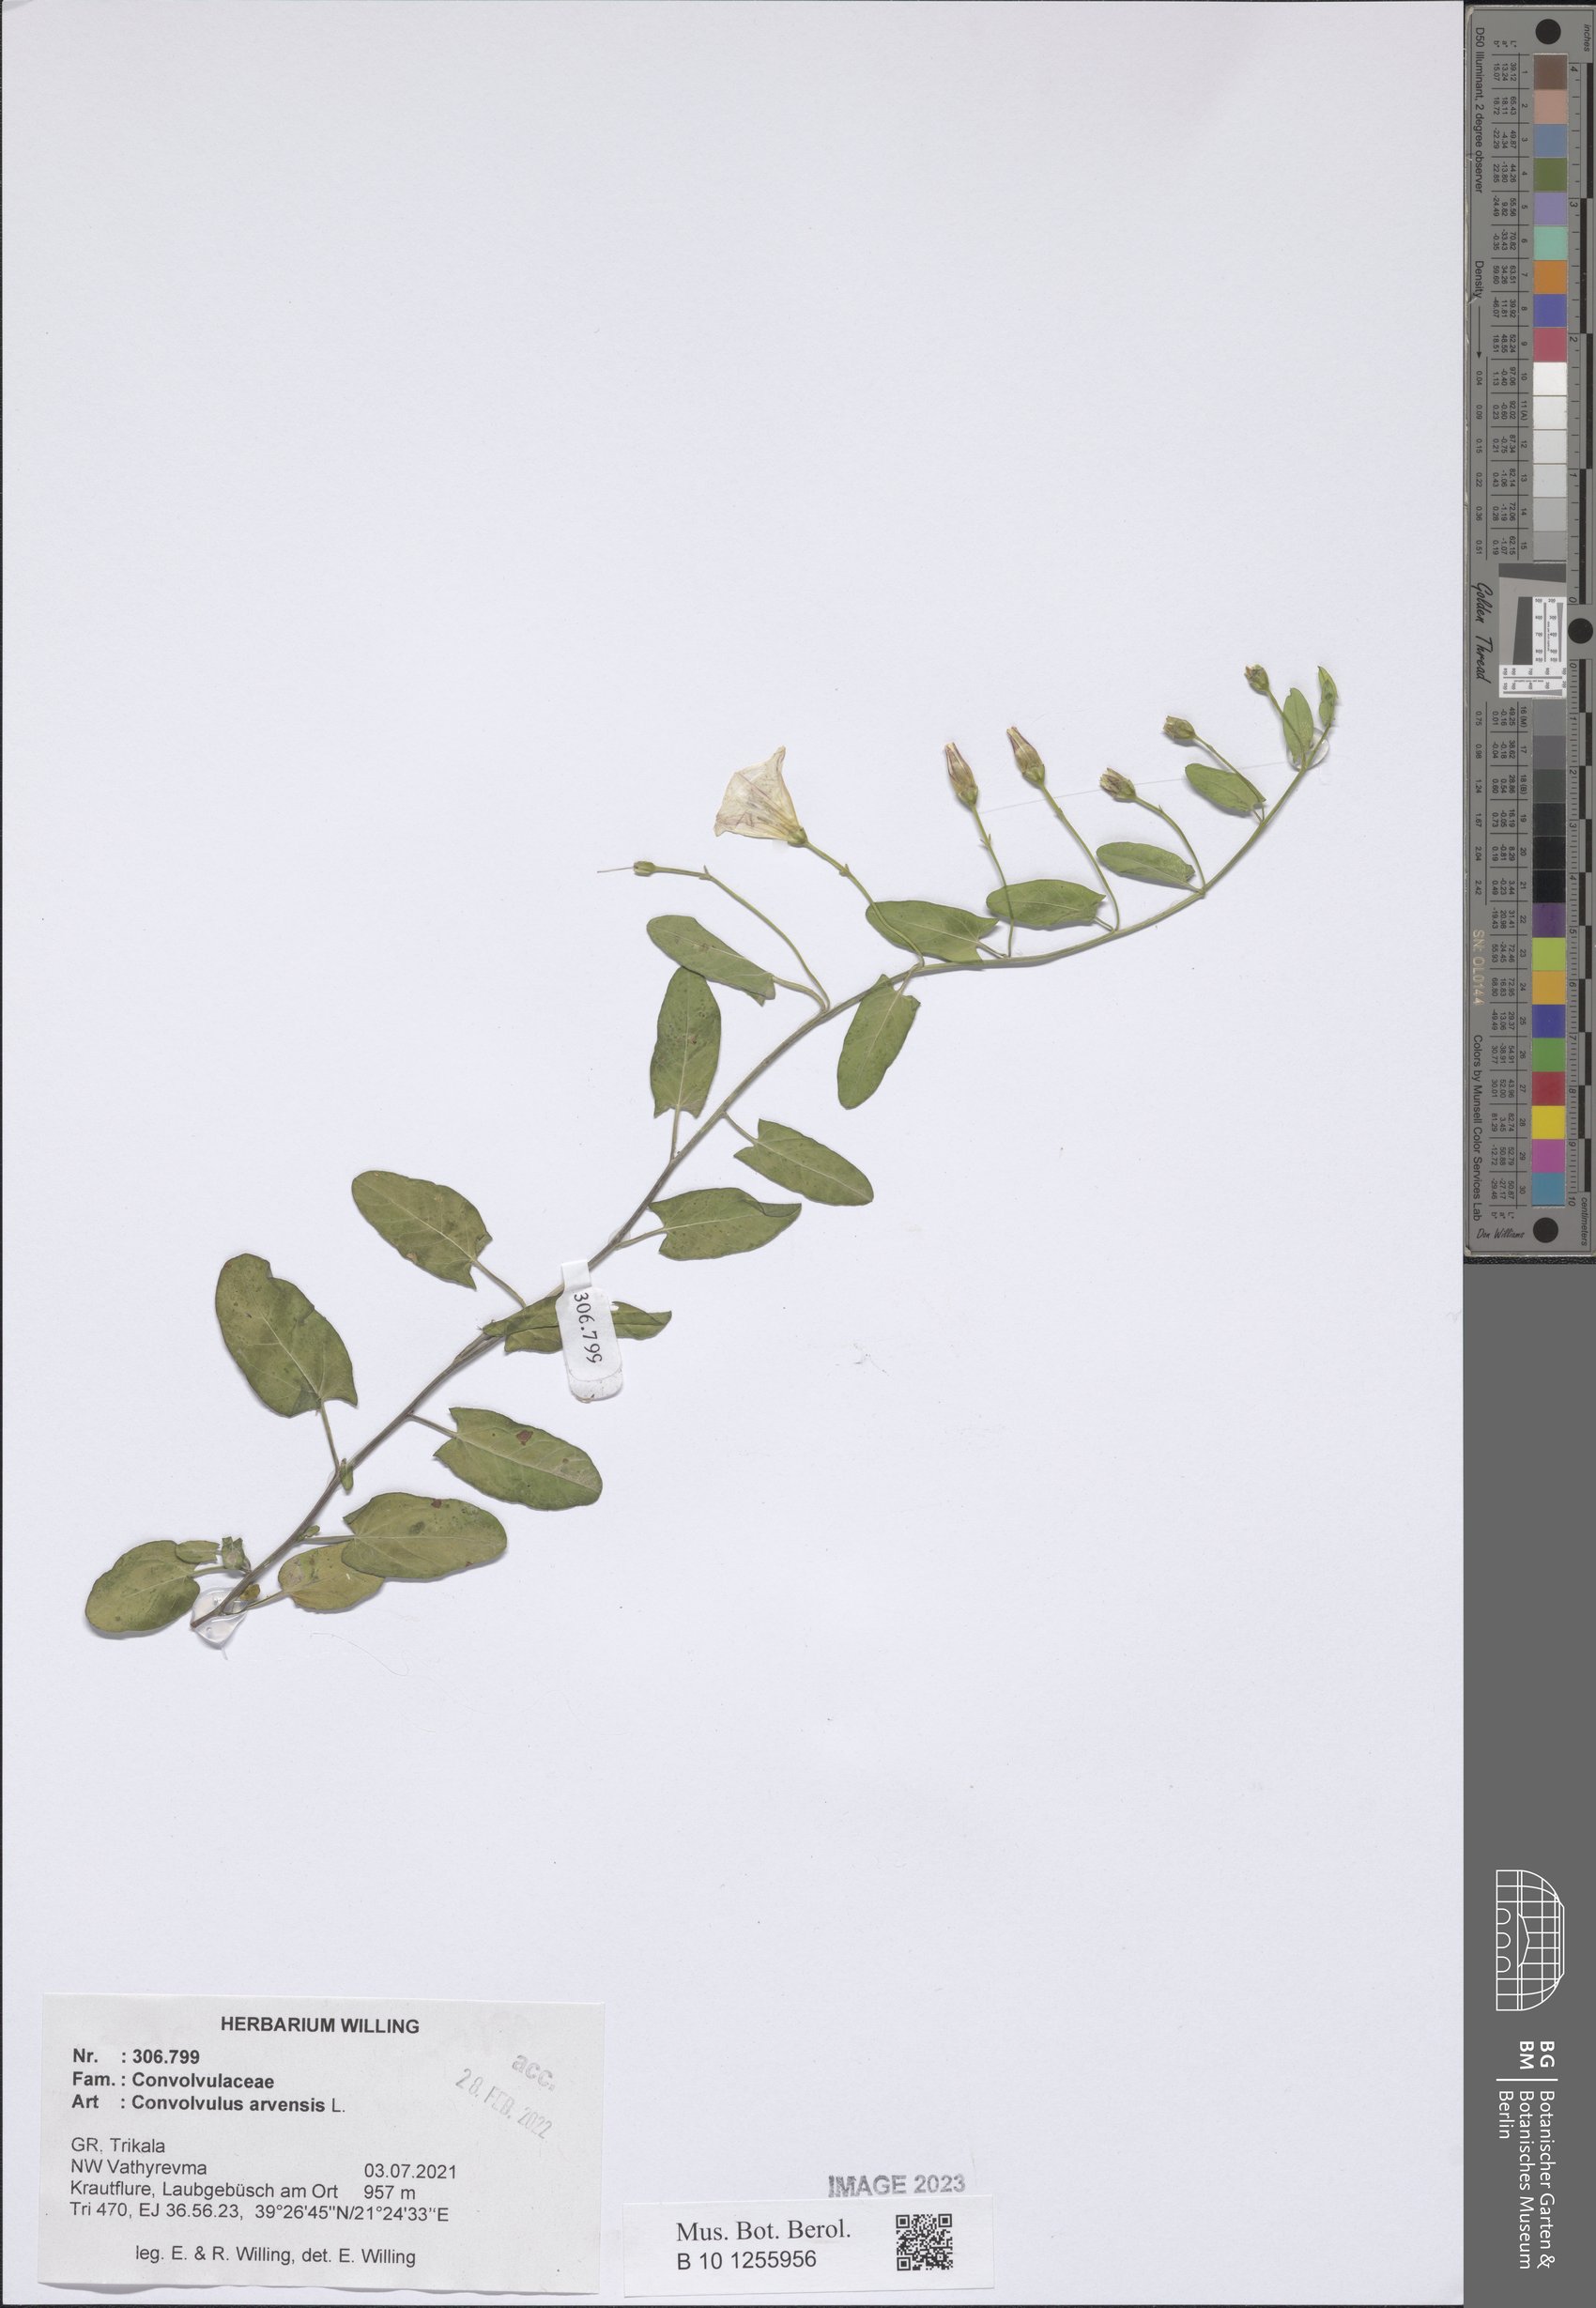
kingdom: Plantae
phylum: Tracheophyta
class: Magnoliopsida
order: Solanales
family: Convolvulaceae
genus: Convolvulus
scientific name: Convolvulus arvensis
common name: Field bindweed
